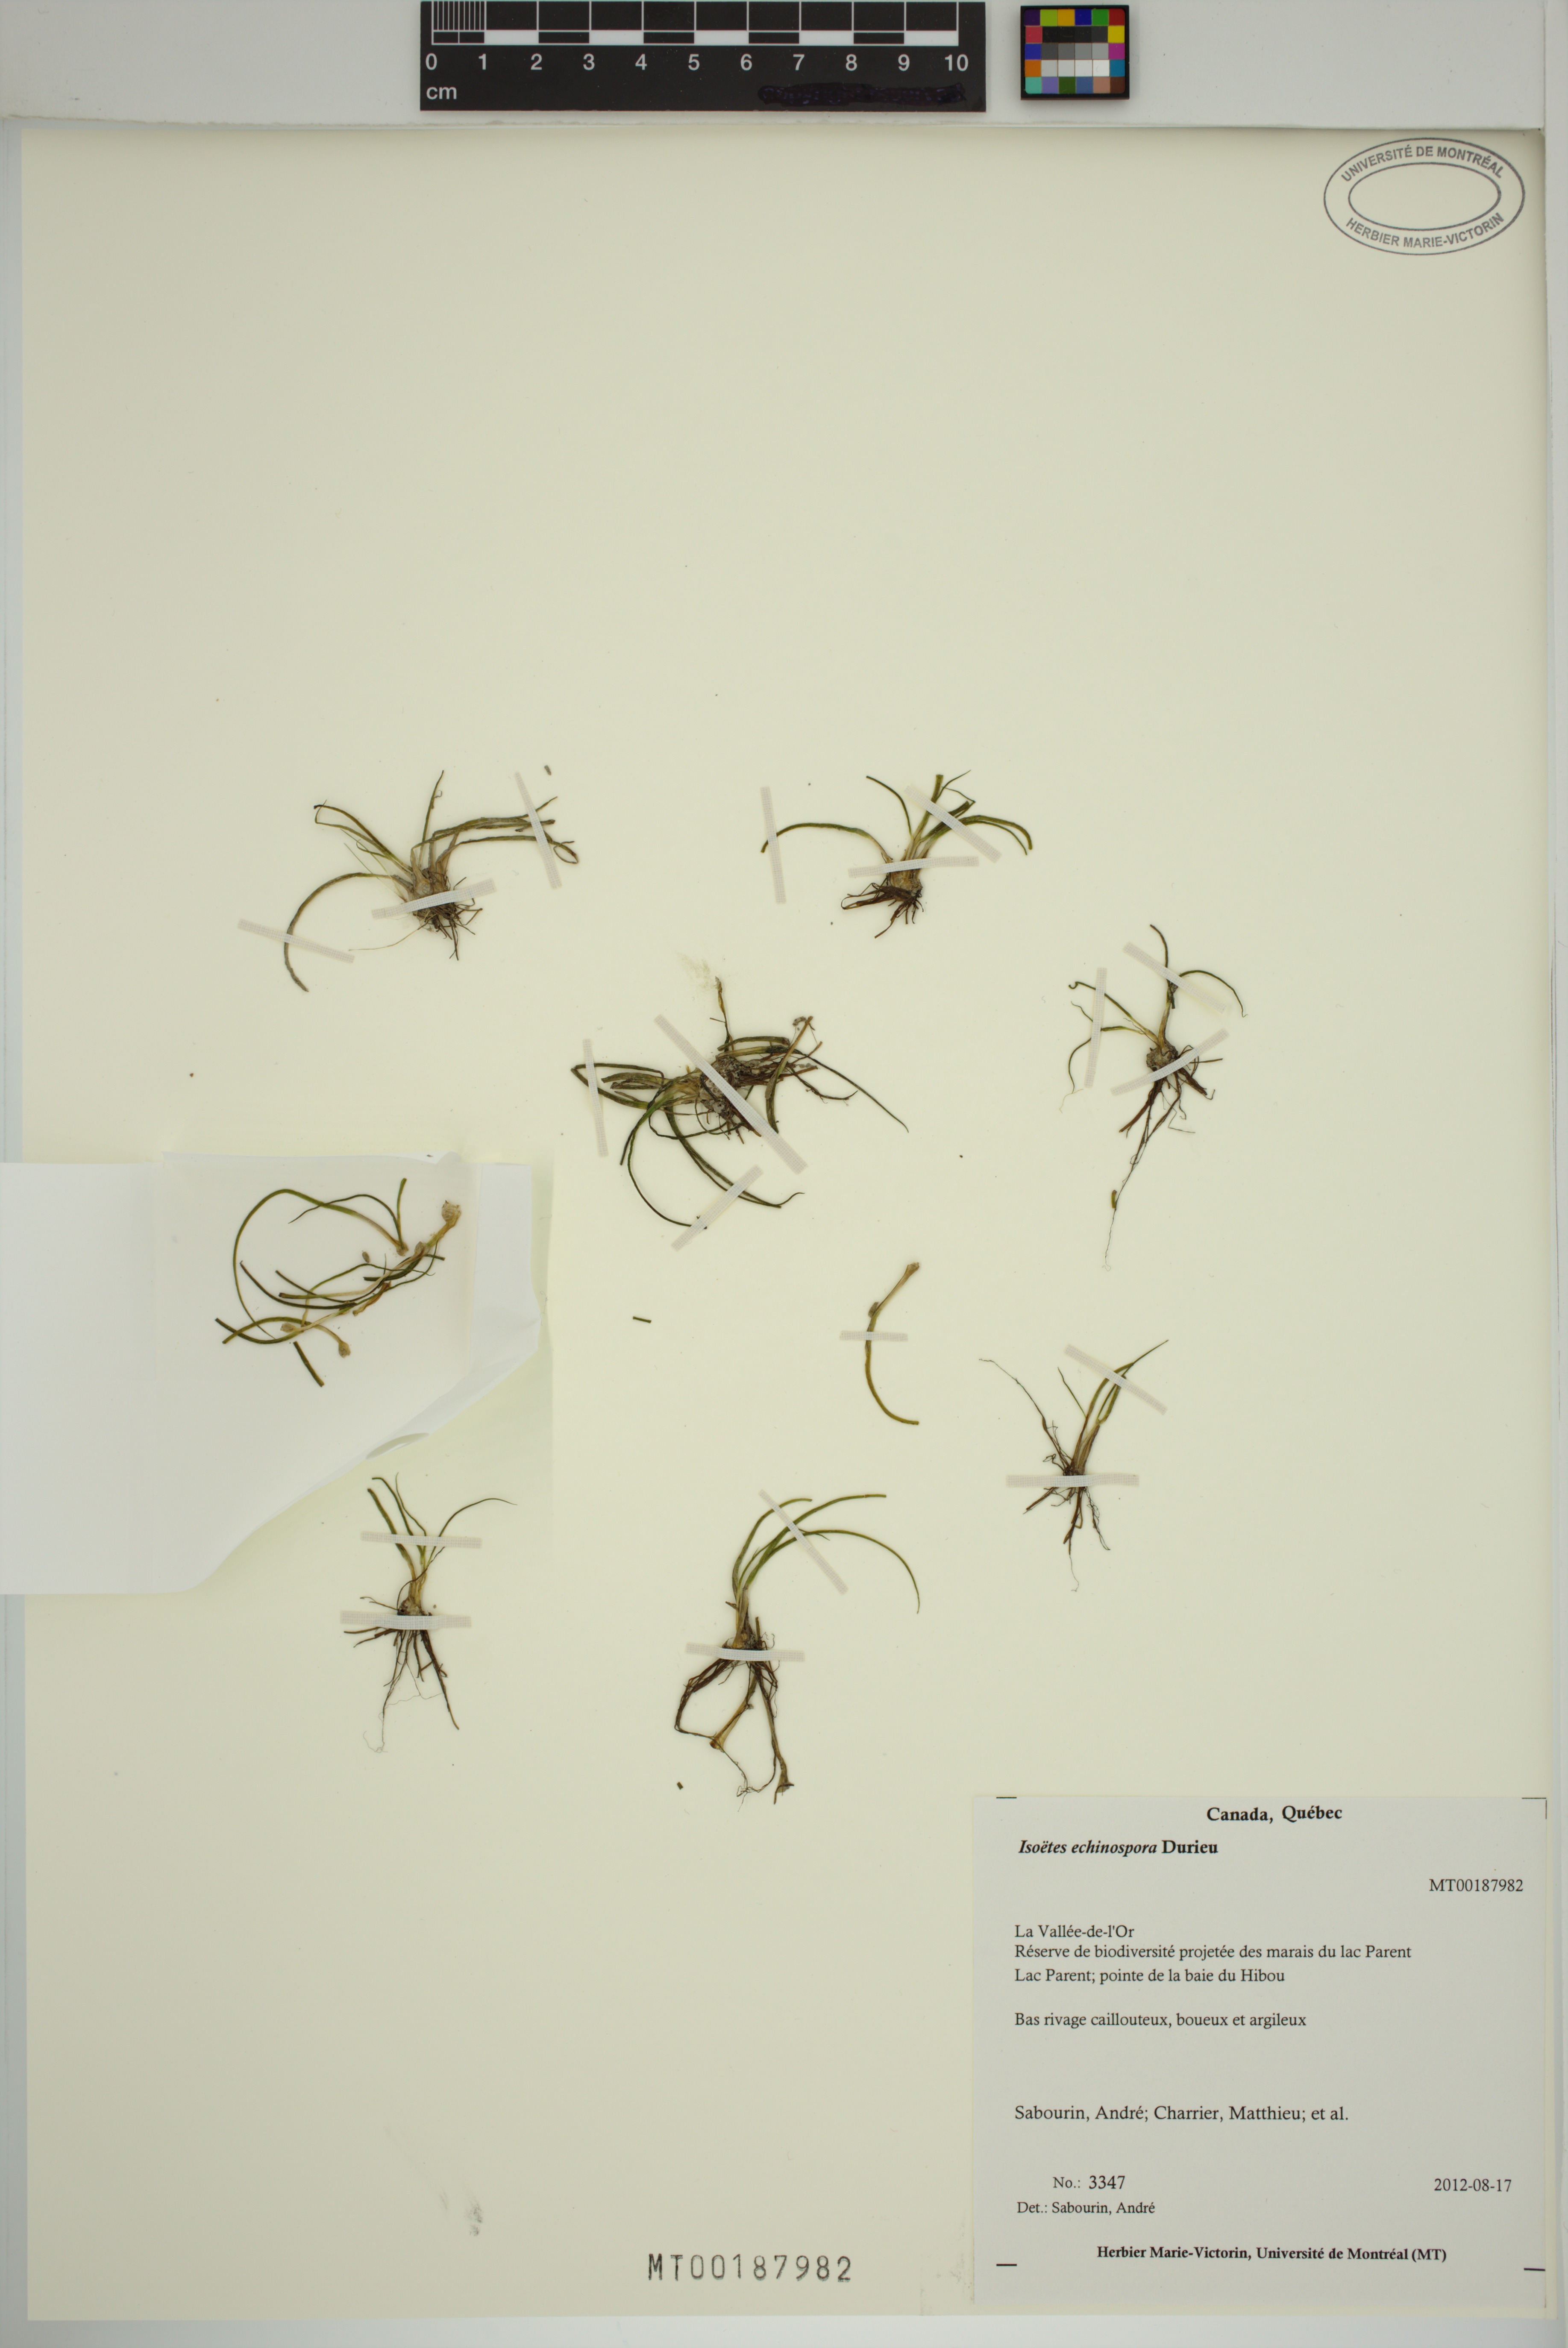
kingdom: Plantae
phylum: Tracheophyta
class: Lycopodiopsida
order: Isoetales
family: Isoetaceae
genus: Isoetes
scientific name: Isoetes echinospora
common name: Spring quillwort
